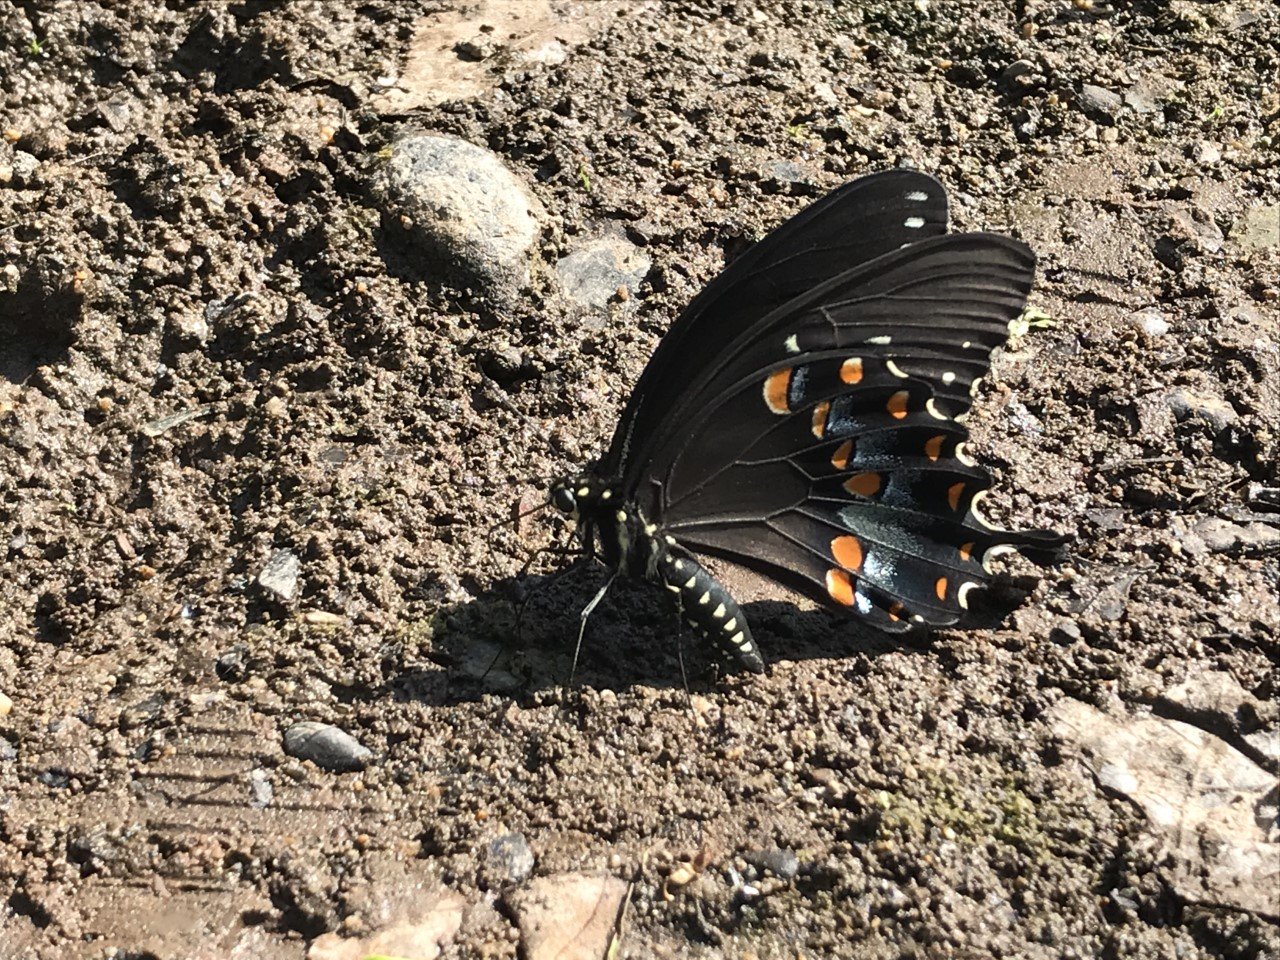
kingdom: Animalia
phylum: Arthropoda
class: Insecta
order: Lepidoptera
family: Papilionidae
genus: Pterourus
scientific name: Pterourus troilus
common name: Spicebush Swallowtail
